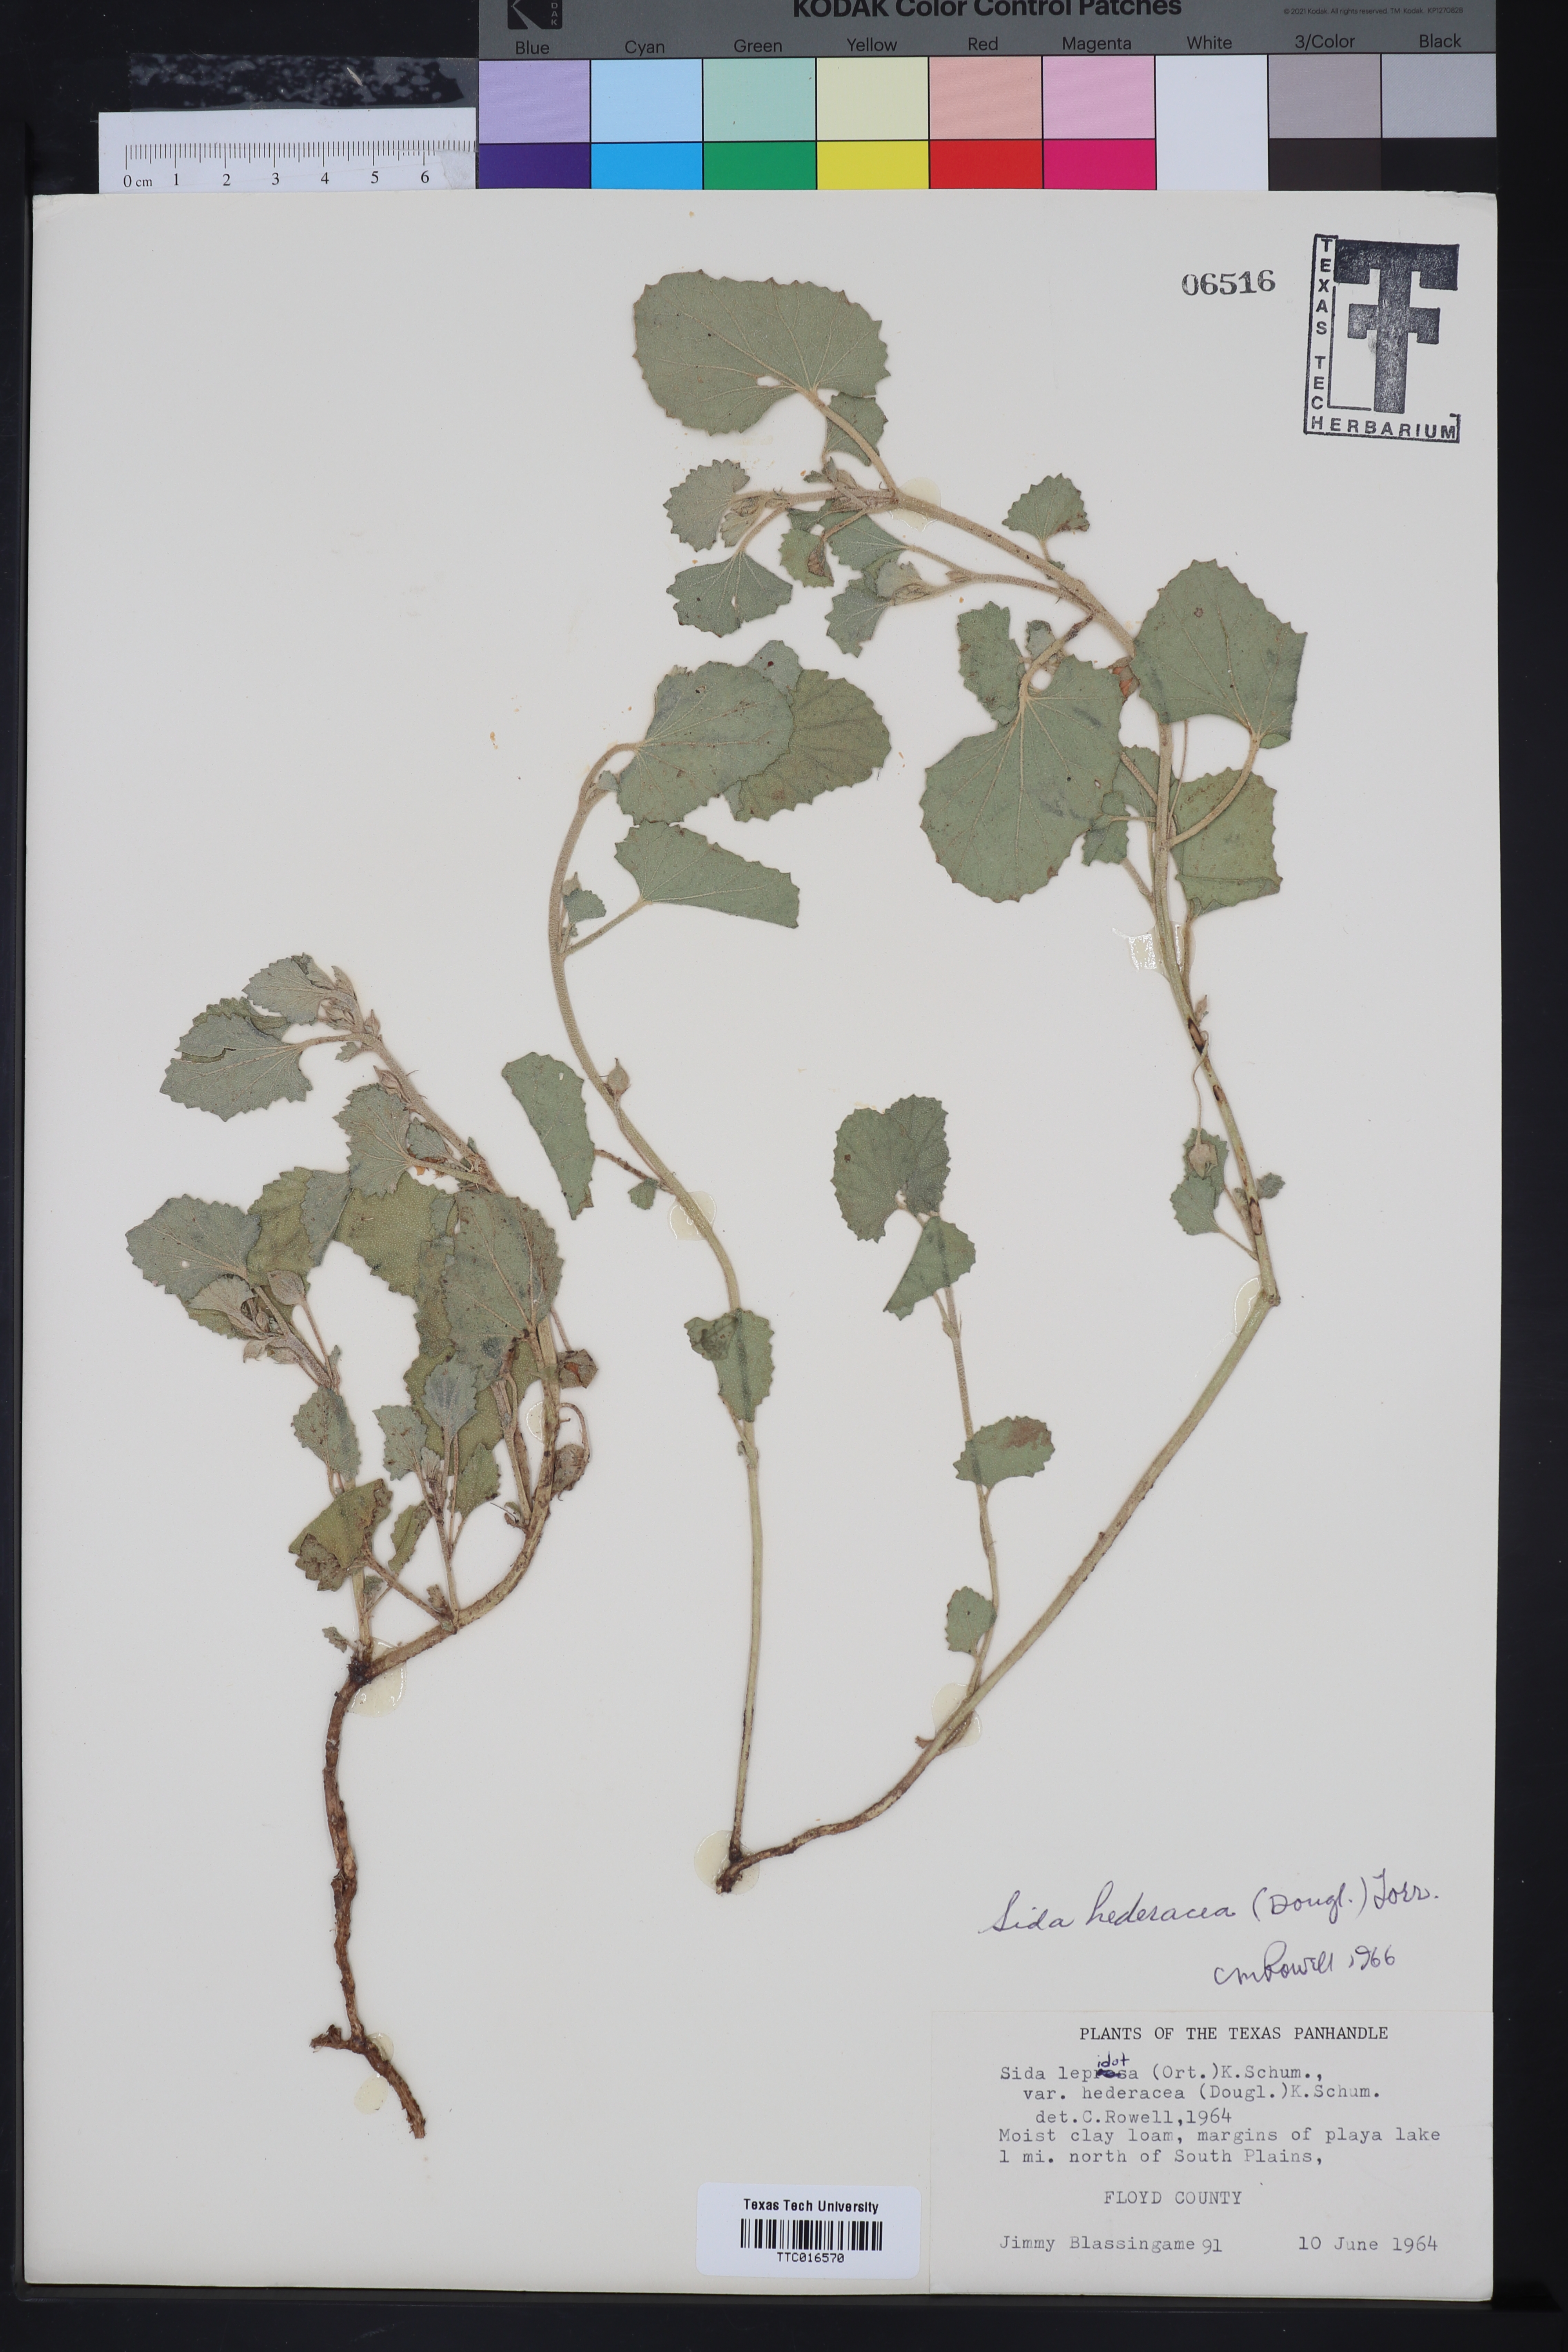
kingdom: Plantae
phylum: Tracheophyta
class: Magnoliopsida
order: Malvales
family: Malvaceae
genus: Malvella
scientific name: Malvella leprosa
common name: Alkali-mallow
